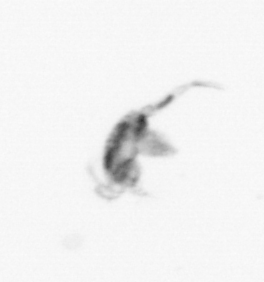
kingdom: Animalia
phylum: Arthropoda
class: Copepoda
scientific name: Copepoda
